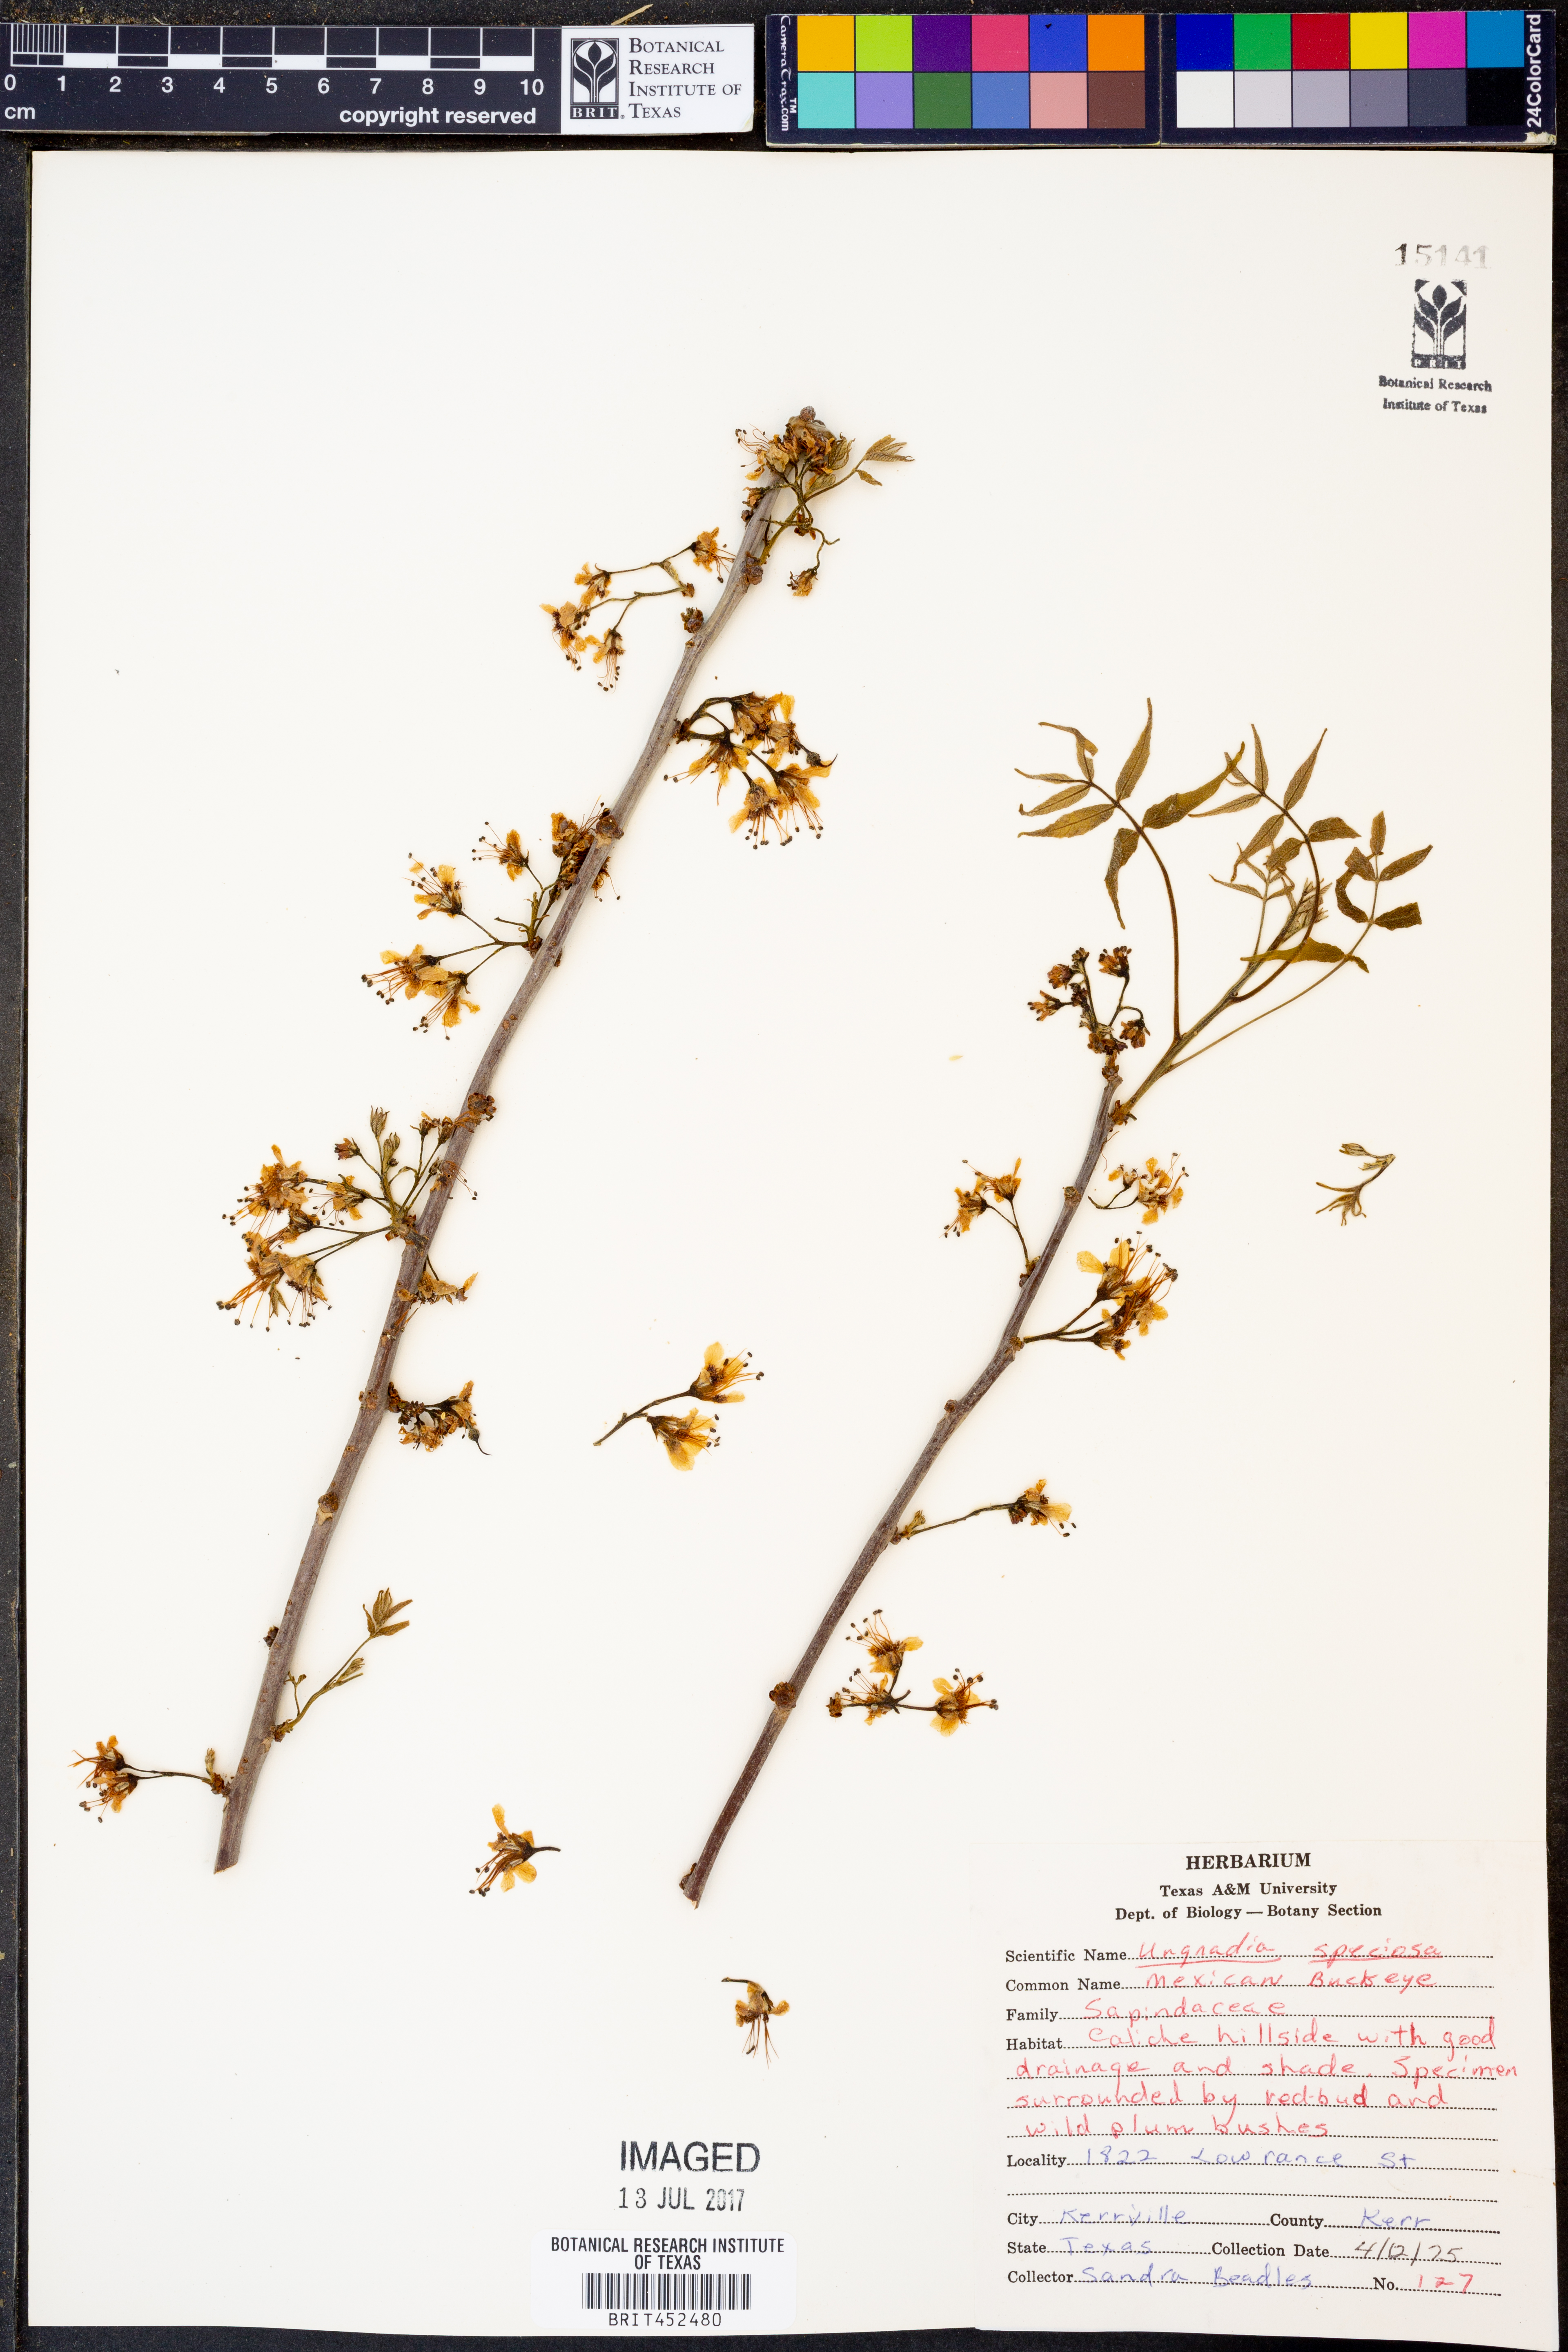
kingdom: Plantae
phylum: Tracheophyta
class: Magnoliopsida
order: Sapindales
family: Sapindaceae
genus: Ungnadia
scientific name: Ungnadia speciosa
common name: Texas-buckeye
